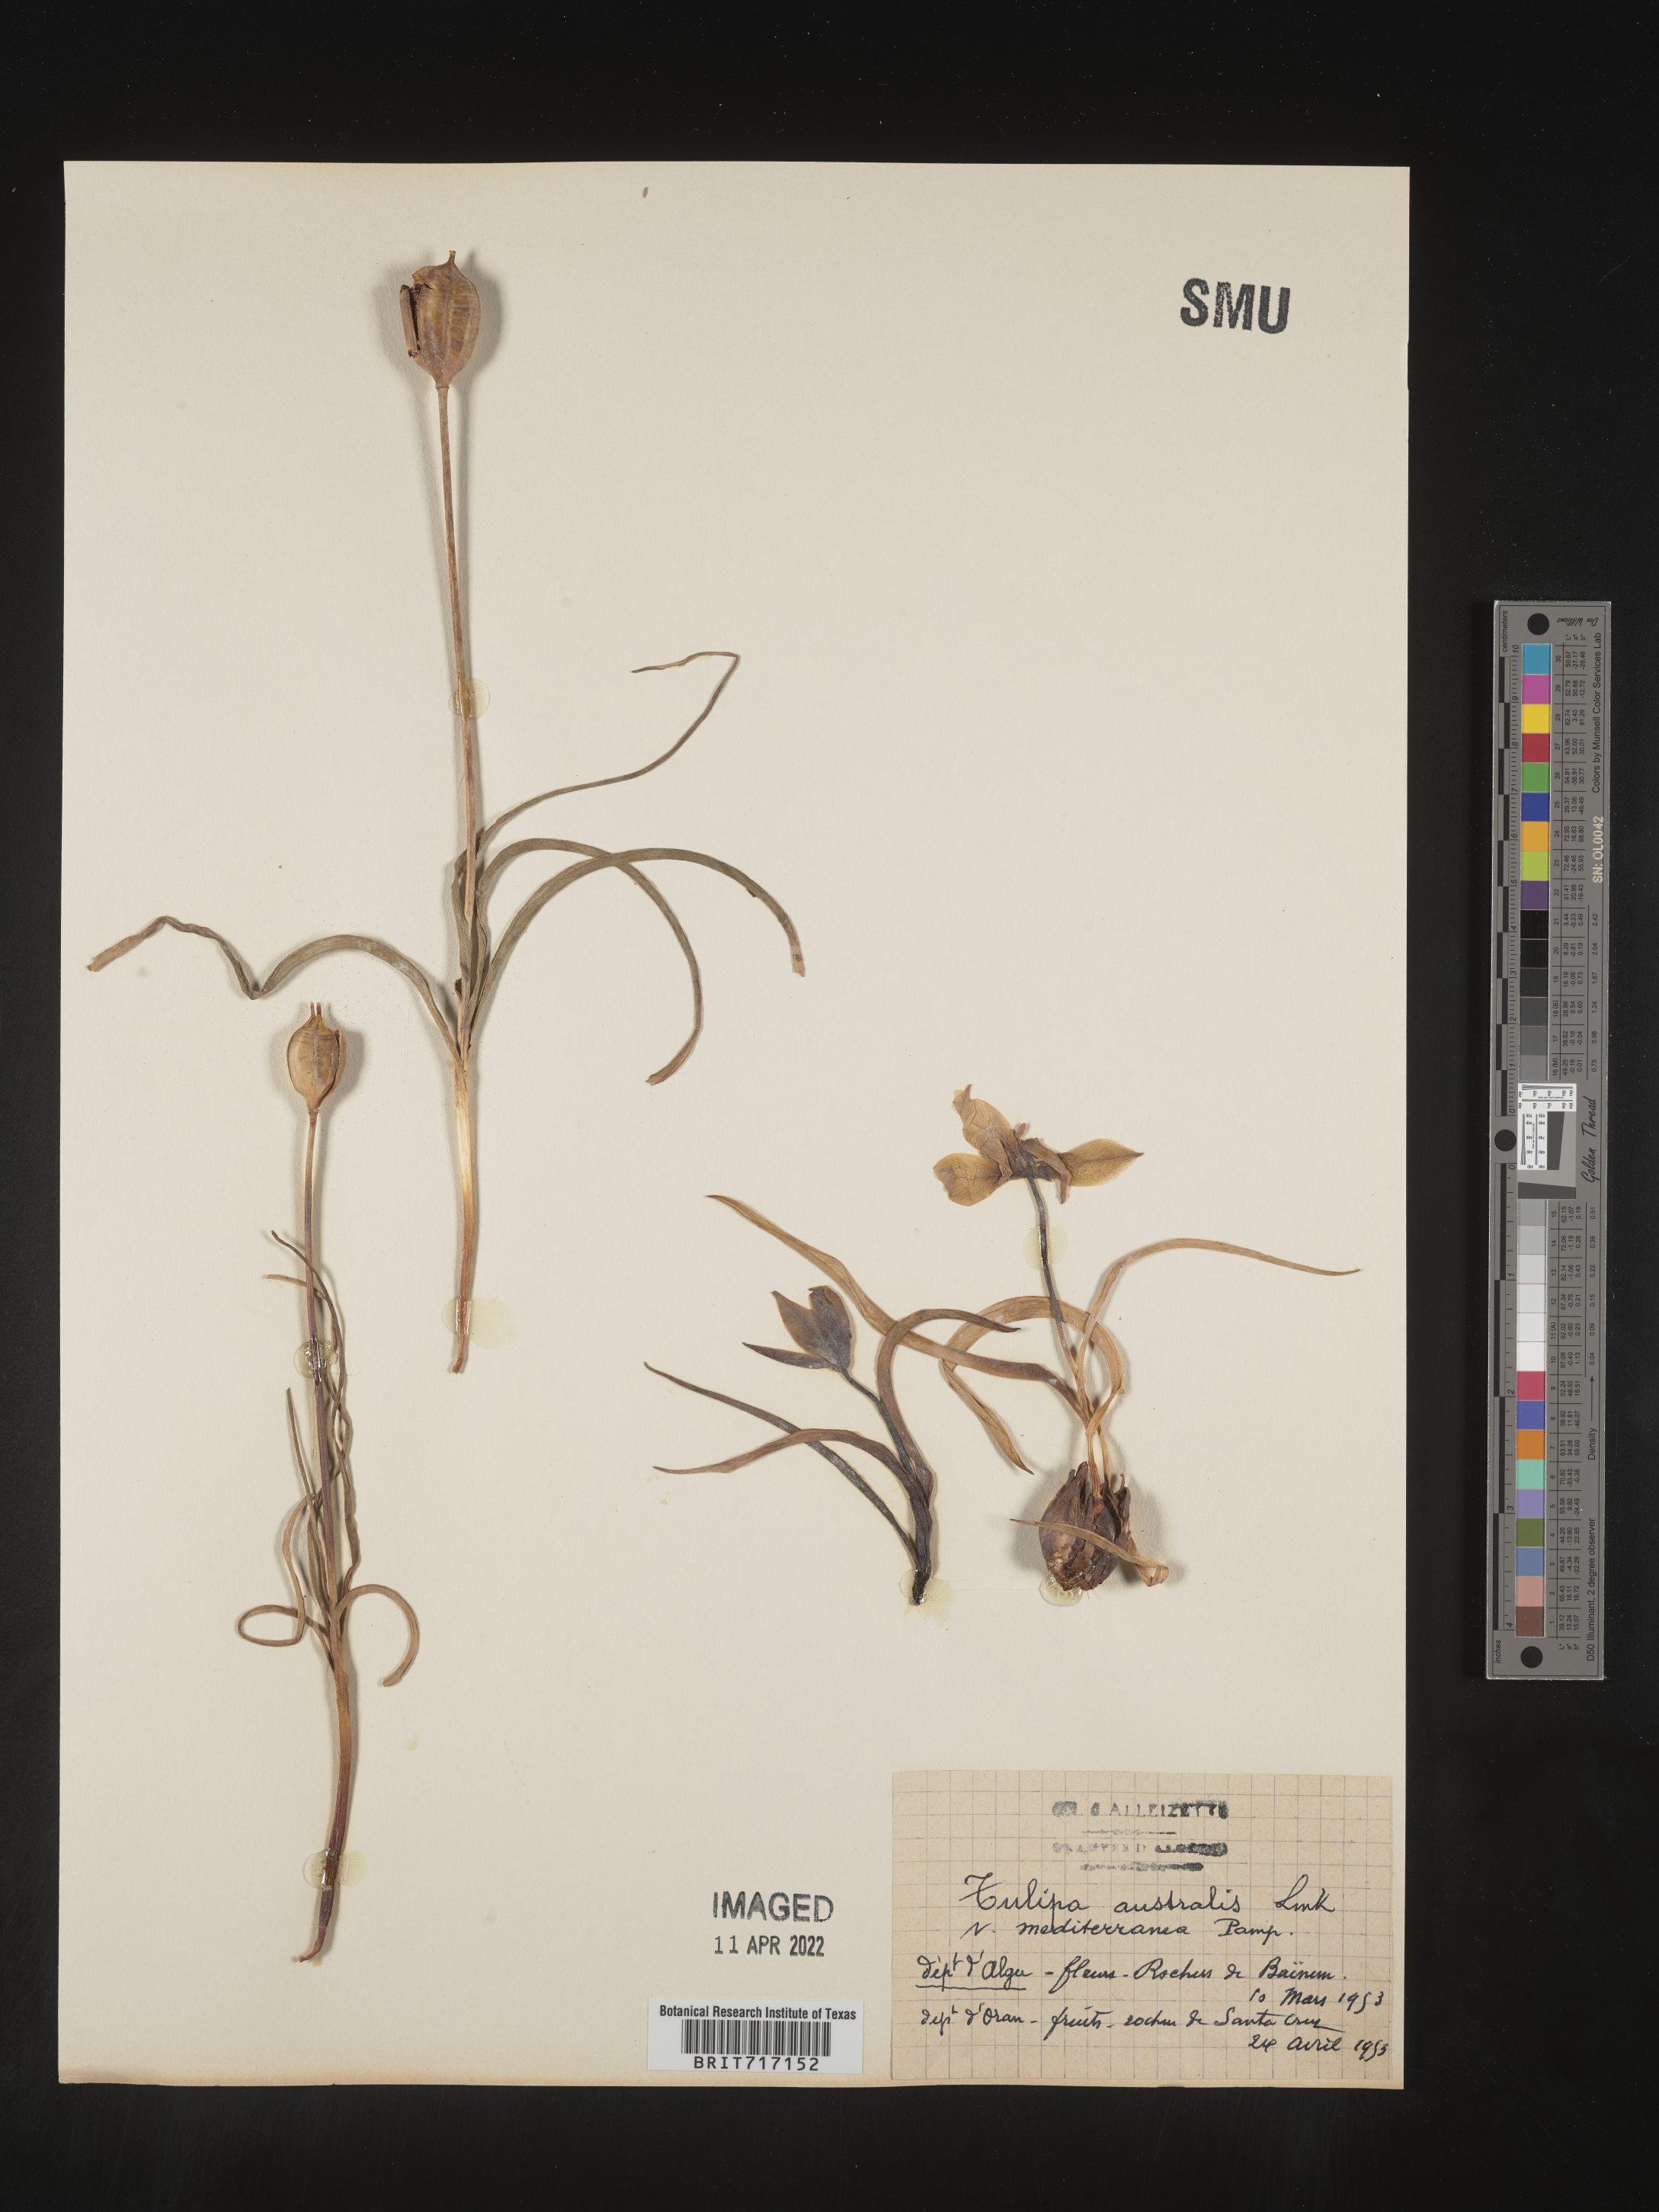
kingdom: Plantae
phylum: Tracheophyta
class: Liliopsida
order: Liliales
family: Liliaceae
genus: Tulipa
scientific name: Tulipa
